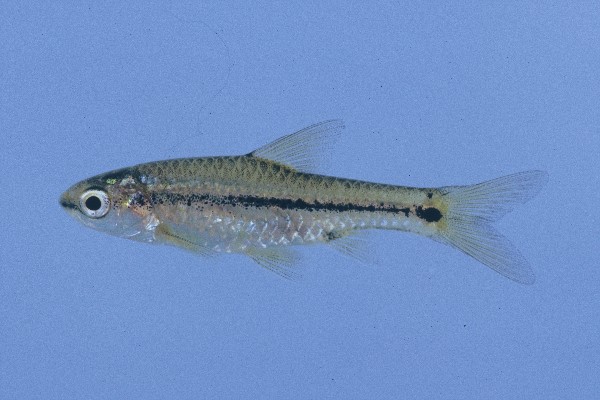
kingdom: Animalia
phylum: Chordata
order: Cypriniformes
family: Cyprinidae
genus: Enteromius
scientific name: Enteromius macrotaenia
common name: Broadband barb
